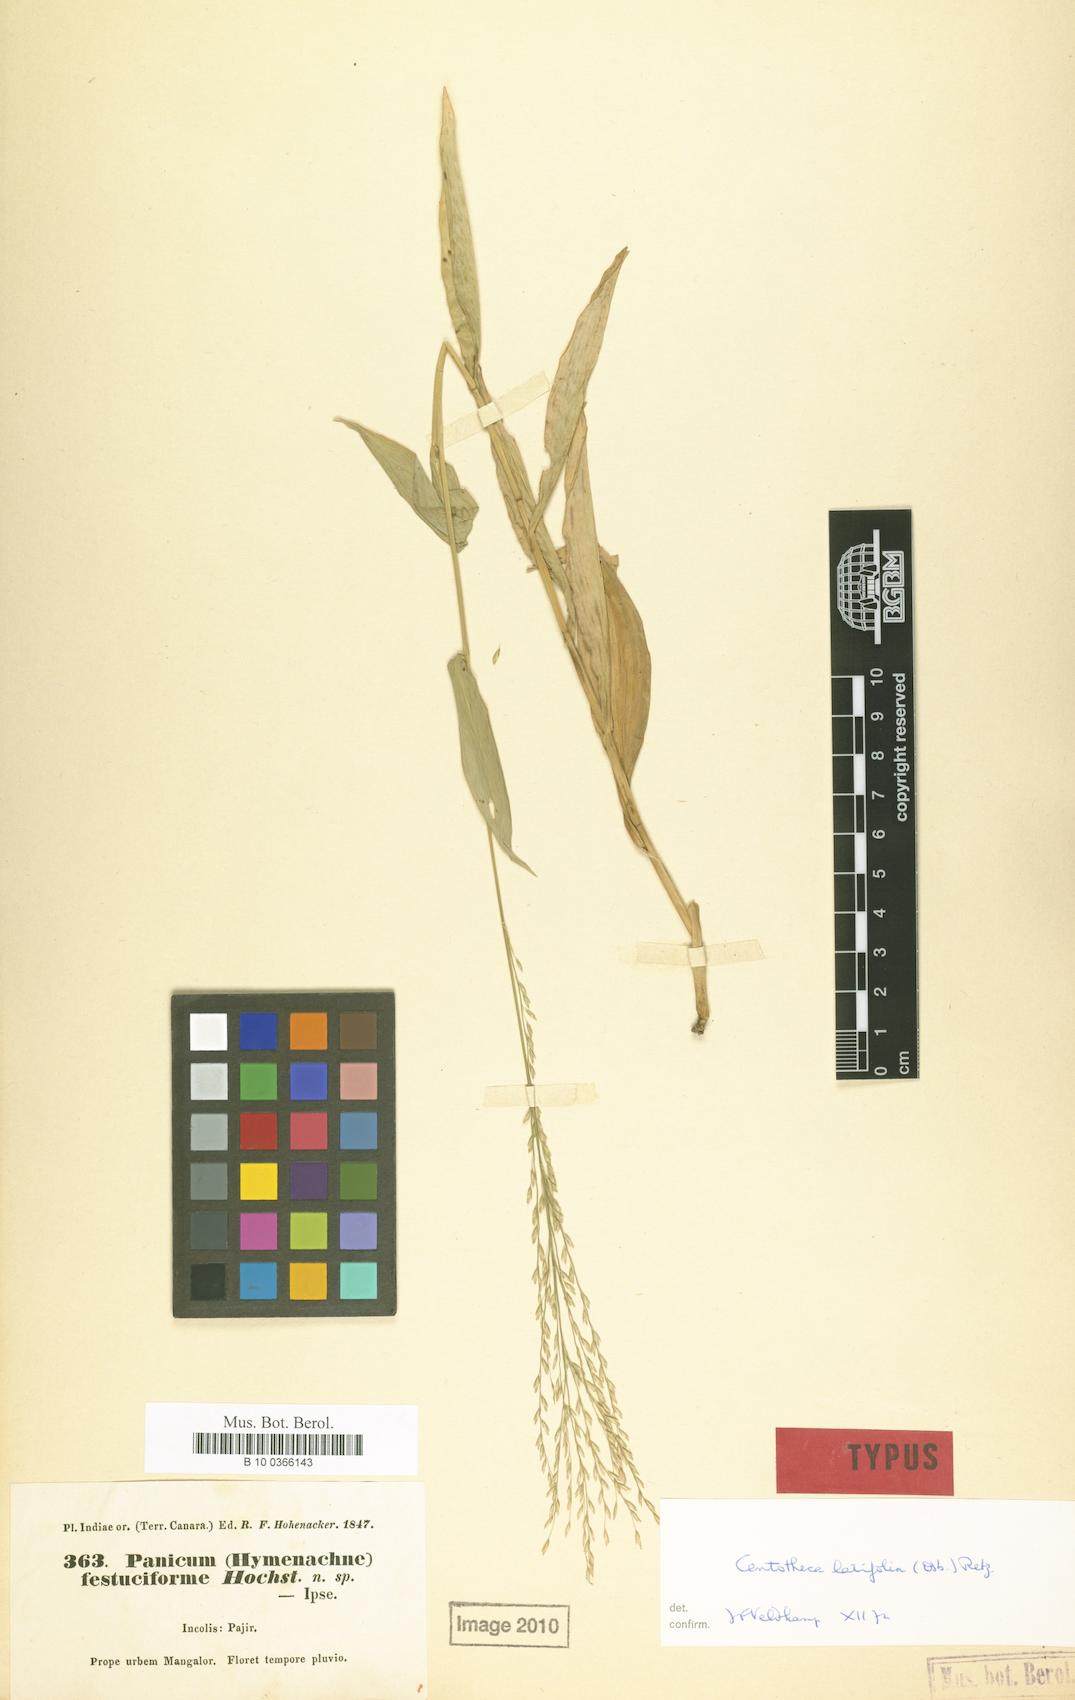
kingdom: Plantae
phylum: Tracheophyta
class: Liliopsida
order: Poales
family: Poaceae
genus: Centotheca
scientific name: Centotheca lappacea
